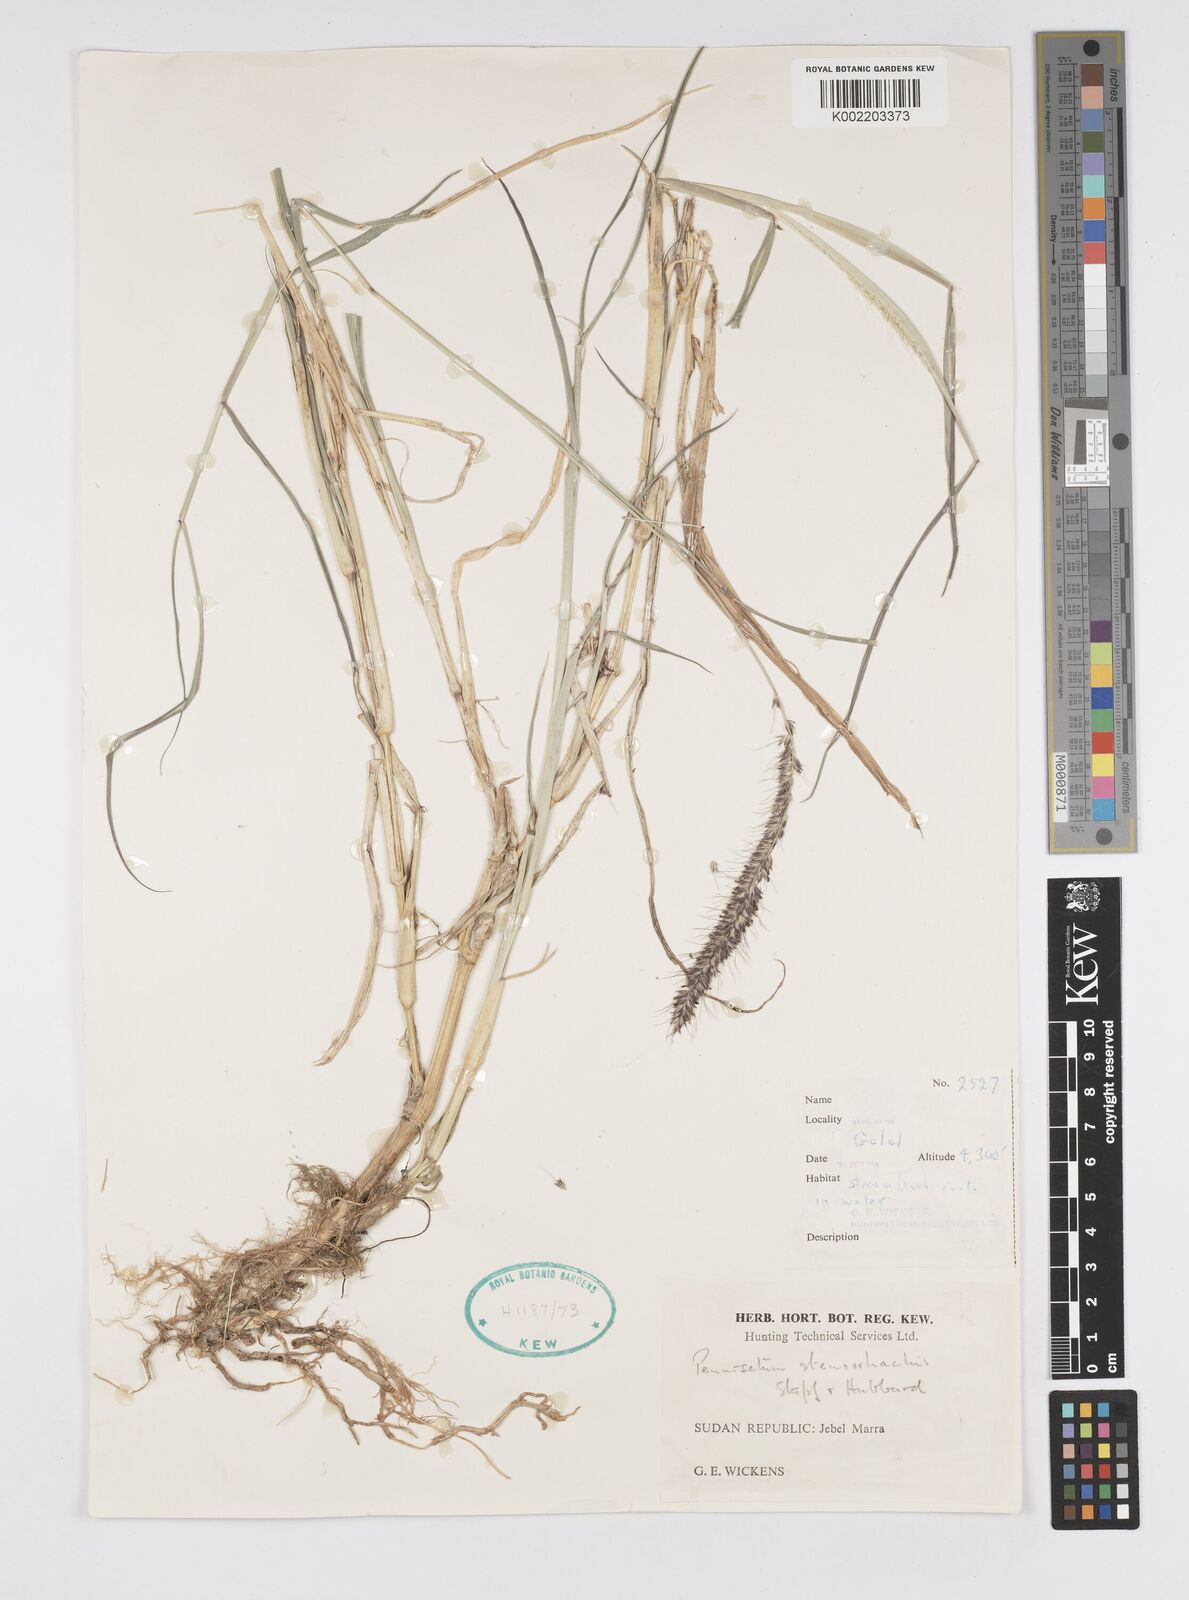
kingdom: Plantae
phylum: Tracheophyta
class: Liliopsida
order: Poales
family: Poaceae
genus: Cenchrus
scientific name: Cenchrus caudatus
